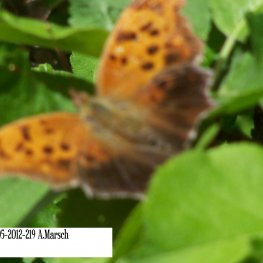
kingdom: Animalia
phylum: Arthropoda
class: Insecta
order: Lepidoptera
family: Nymphalidae
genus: Polygonia
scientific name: Polygonia interrogationis
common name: Question Mark
